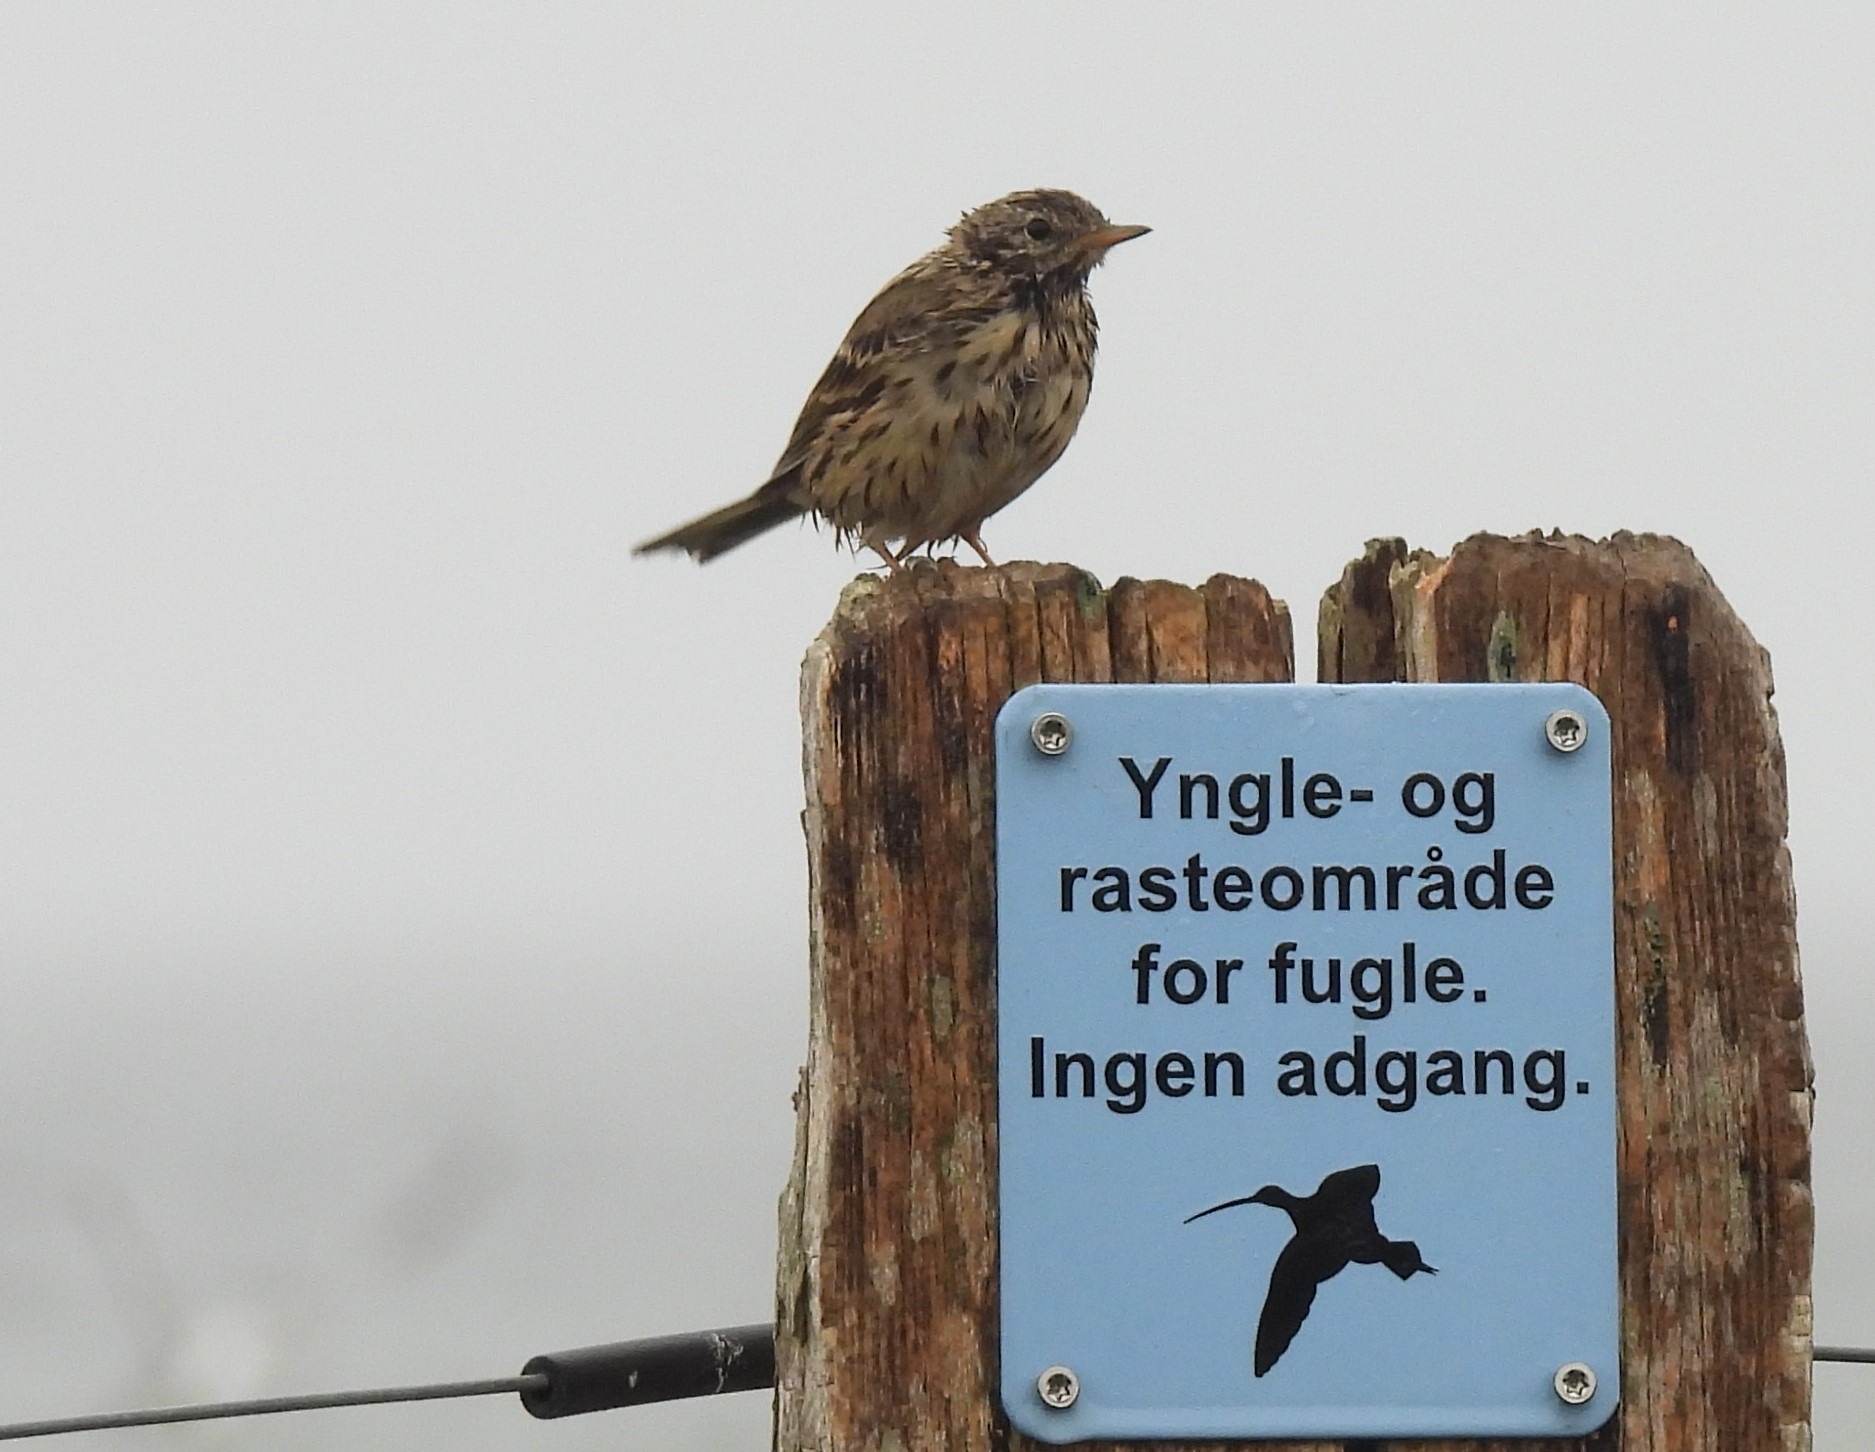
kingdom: Animalia
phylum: Chordata
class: Aves
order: Passeriformes
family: Motacillidae
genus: Anthus
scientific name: Anthus pratensis
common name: Engpiber
